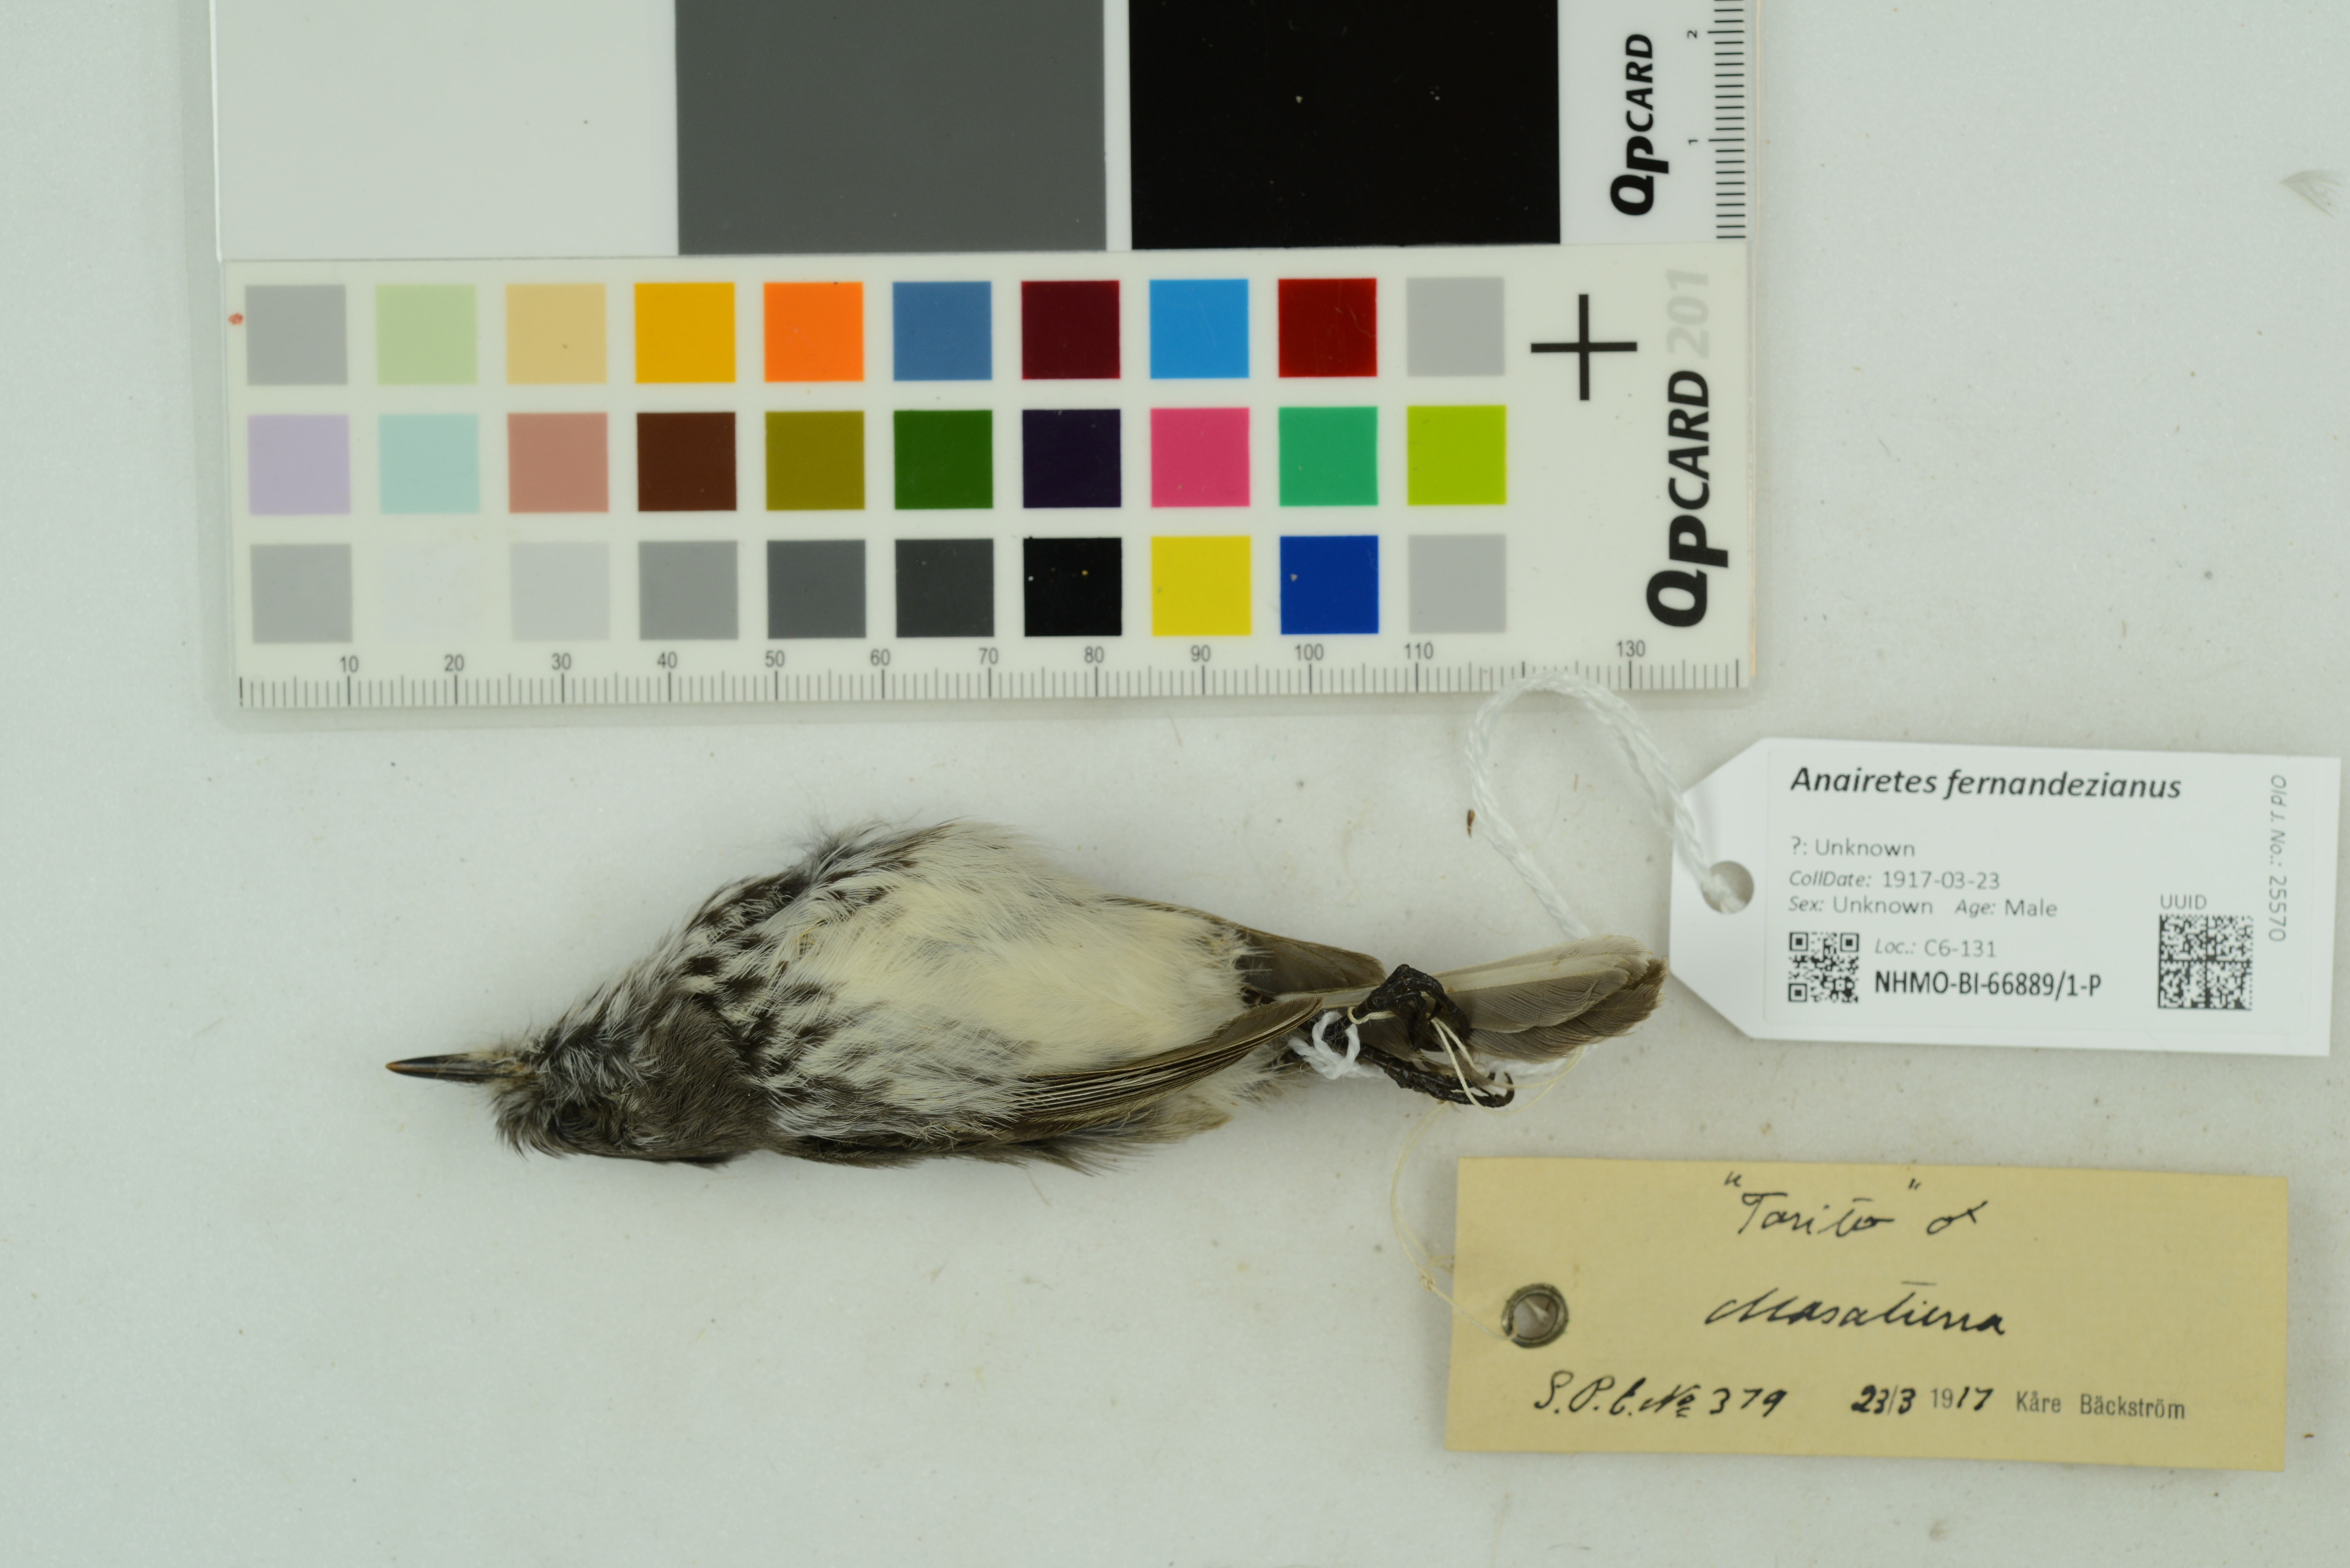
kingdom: Animalia
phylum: Chordata
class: Aves
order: Passeriformes
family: Tyrannidae
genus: Anairetes
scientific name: Anairetes fernandezianus
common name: Juan fernandez tit-tyrant
